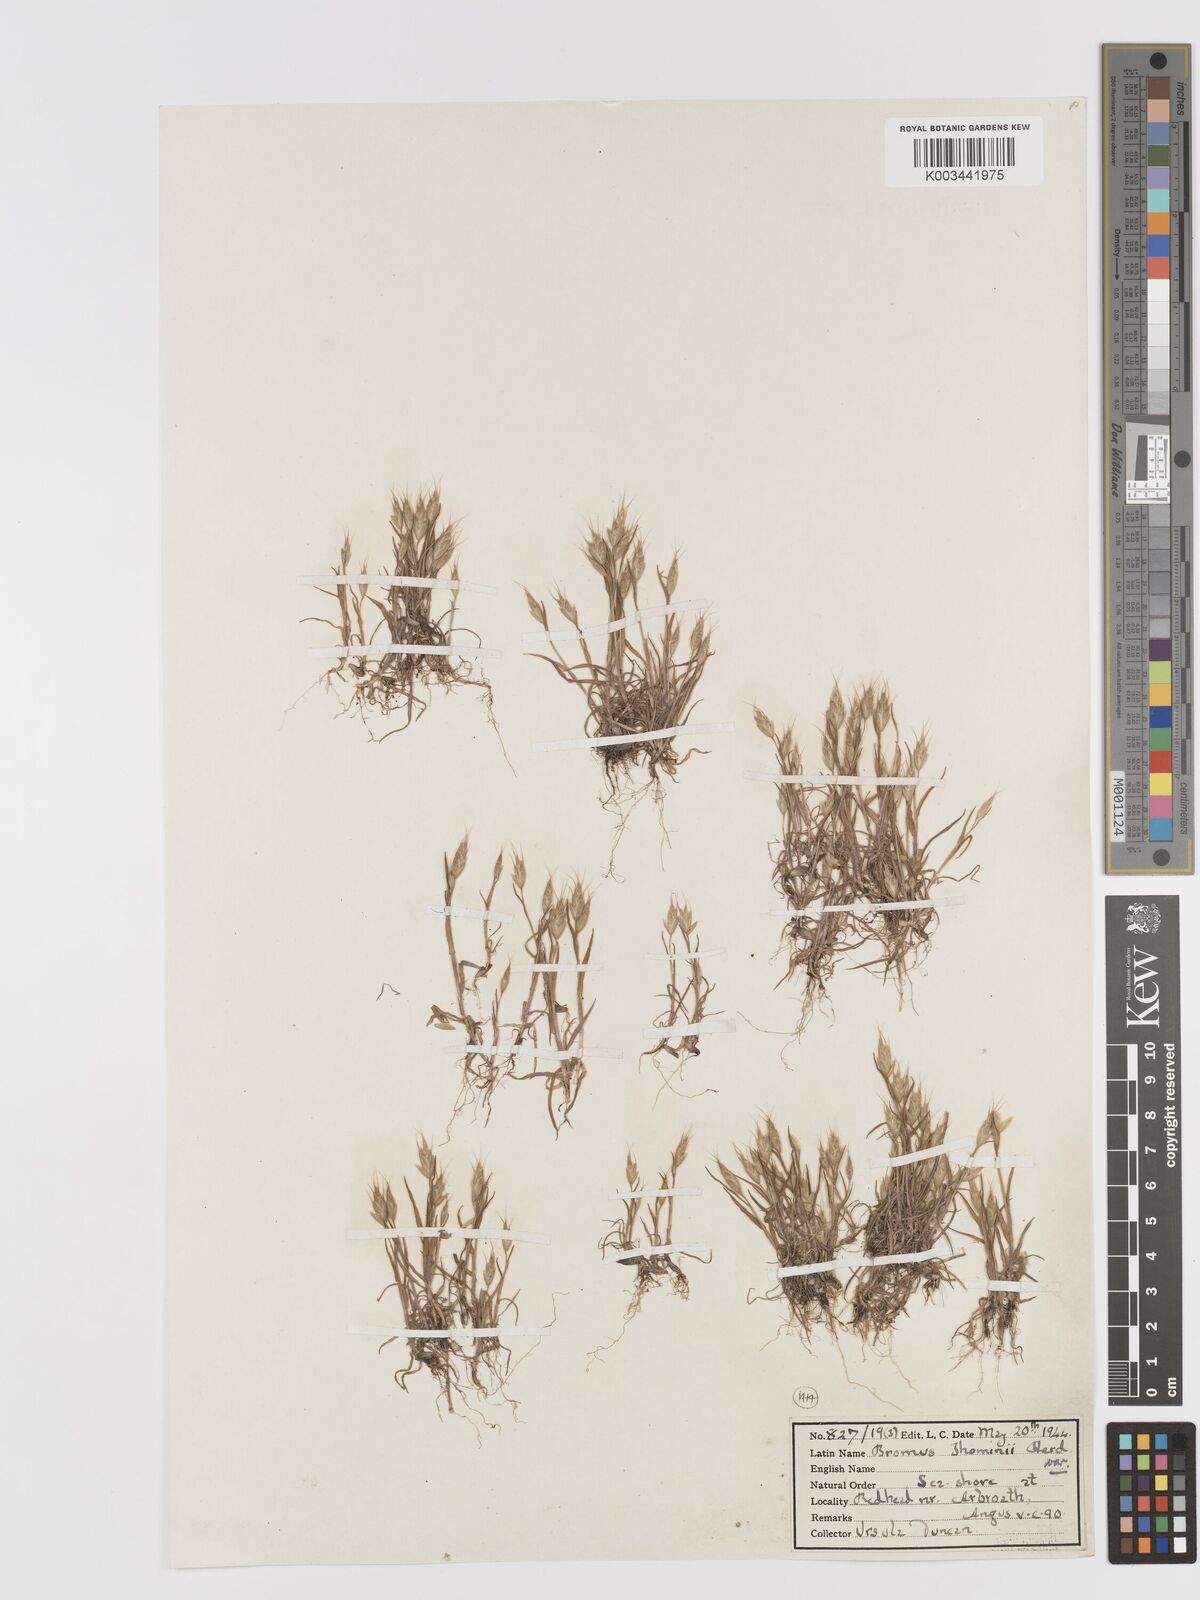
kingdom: Plantae
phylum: Tracheophyta
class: Liliopsida
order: Poales
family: Poaceae
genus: Bromus
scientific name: Bromus hordeaceus
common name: Soft brome
